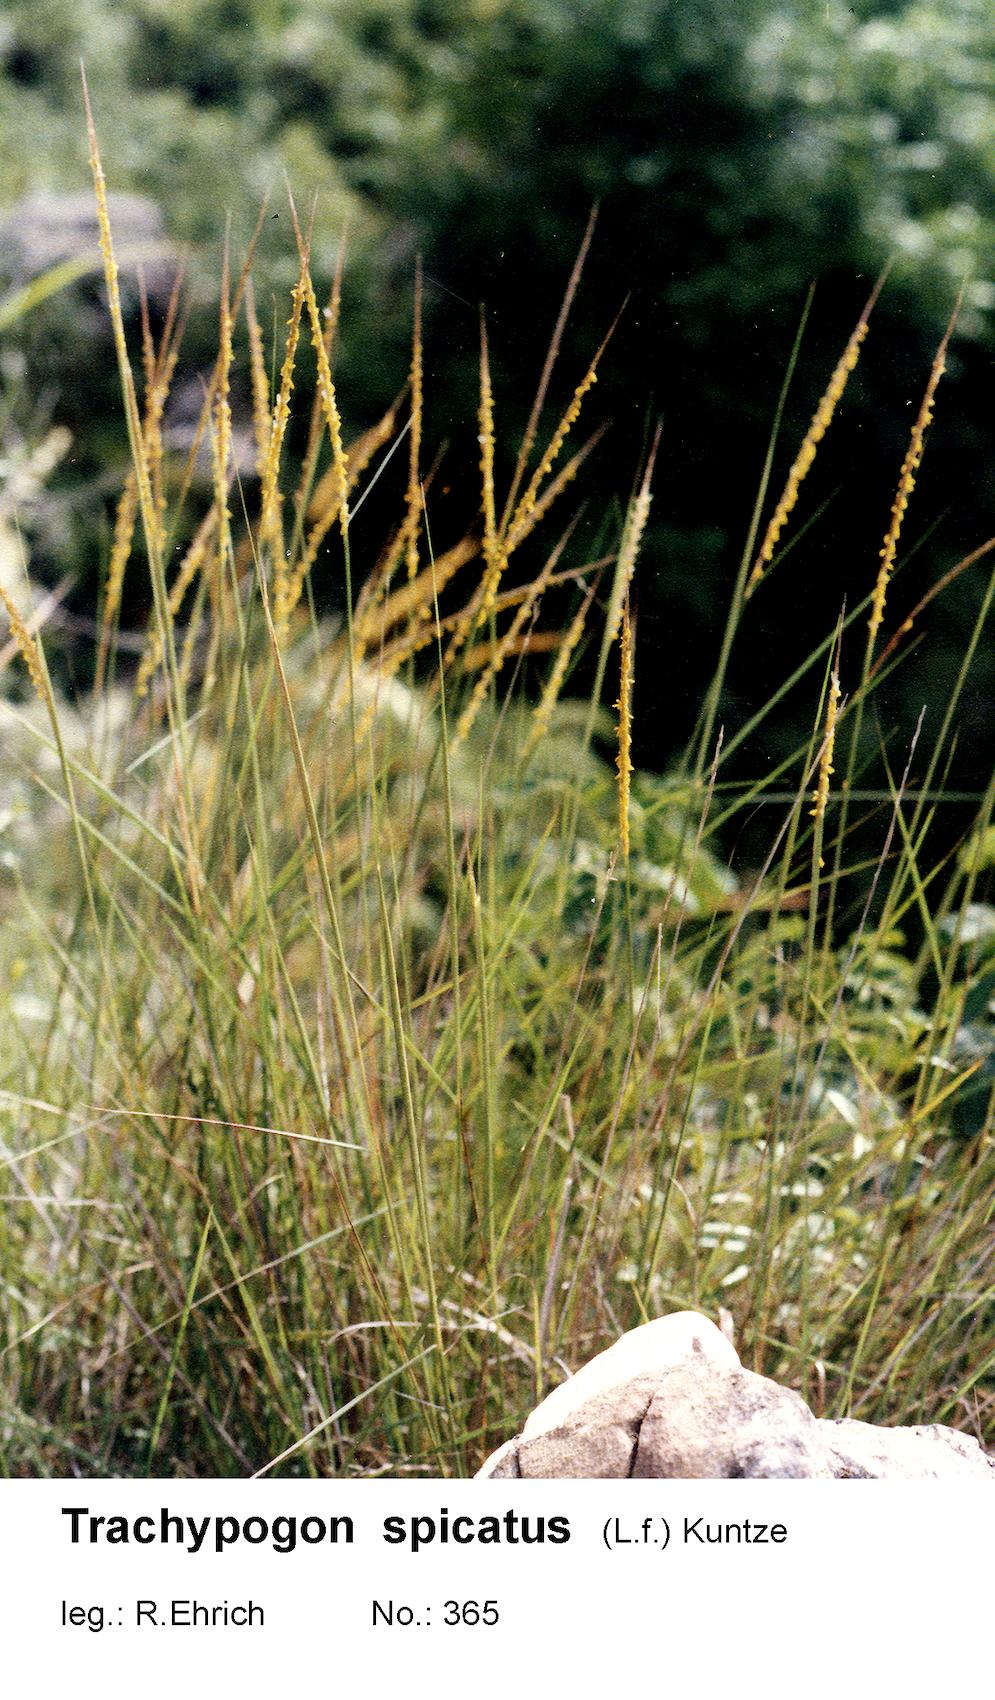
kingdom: Plantae
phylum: Tracheophyta
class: Liliopsida
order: Poales
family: Poaceae
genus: Trachypogon
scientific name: Trachypogon spicatus
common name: Crinkle-awn
